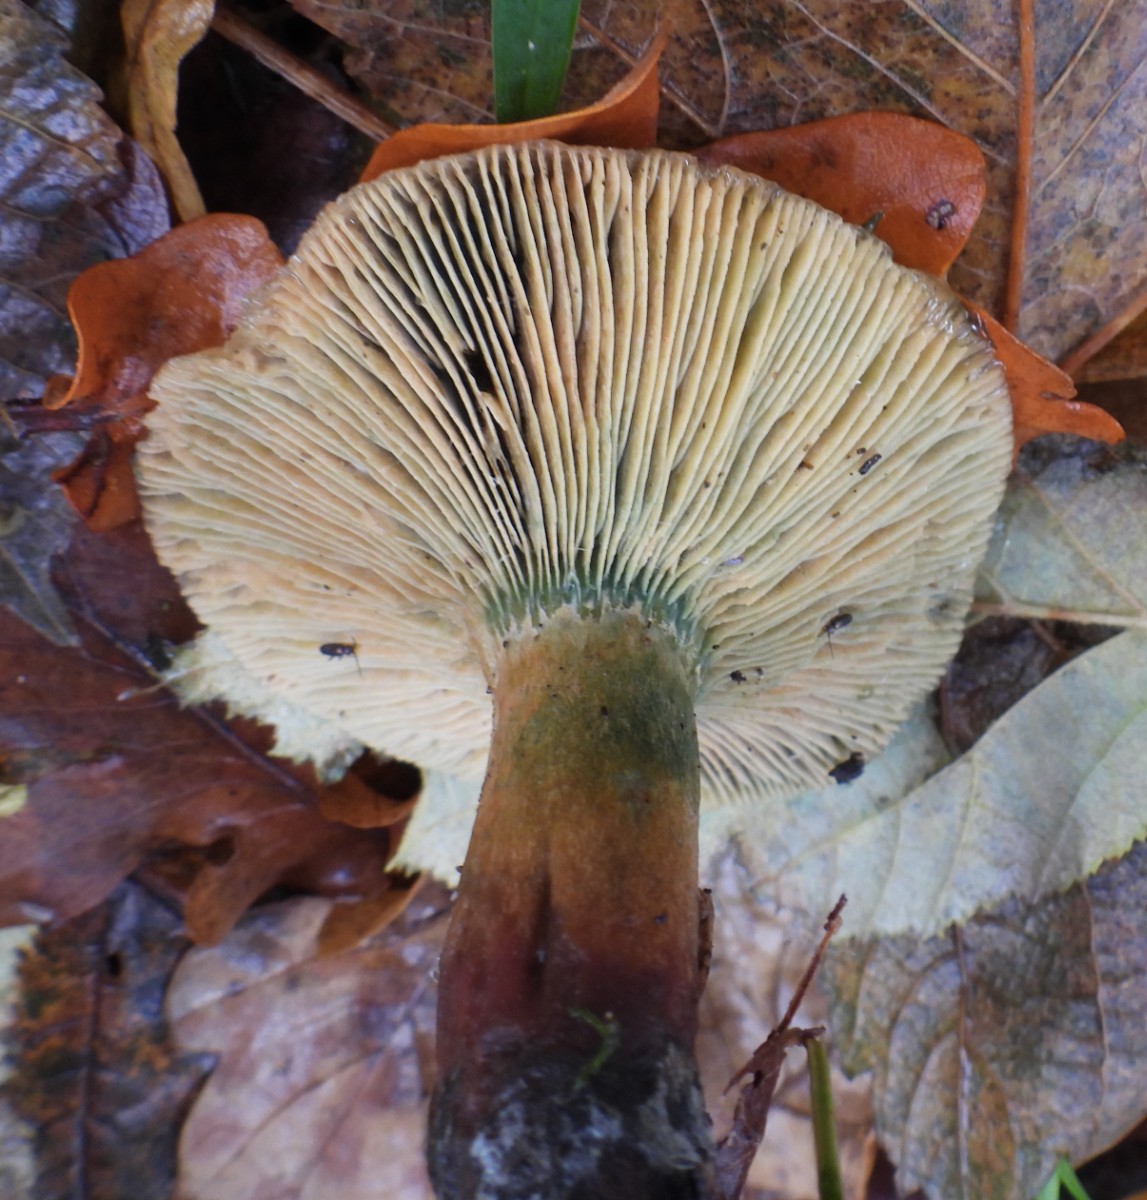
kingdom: Fungi
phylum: Basidiomycota
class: Agaricomycetes
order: Russulales
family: Russulaceae
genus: Lactarius
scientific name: Lactarius deterrimus
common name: gran-mælkehat
